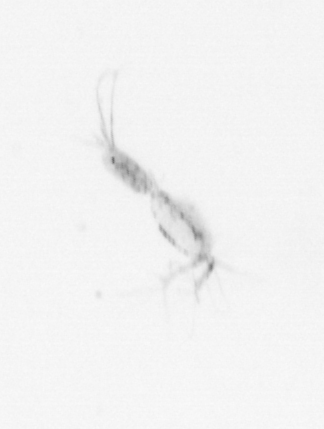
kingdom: Animalia
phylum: Arthropoda
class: Maxillopoda
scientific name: Maxillopoda
